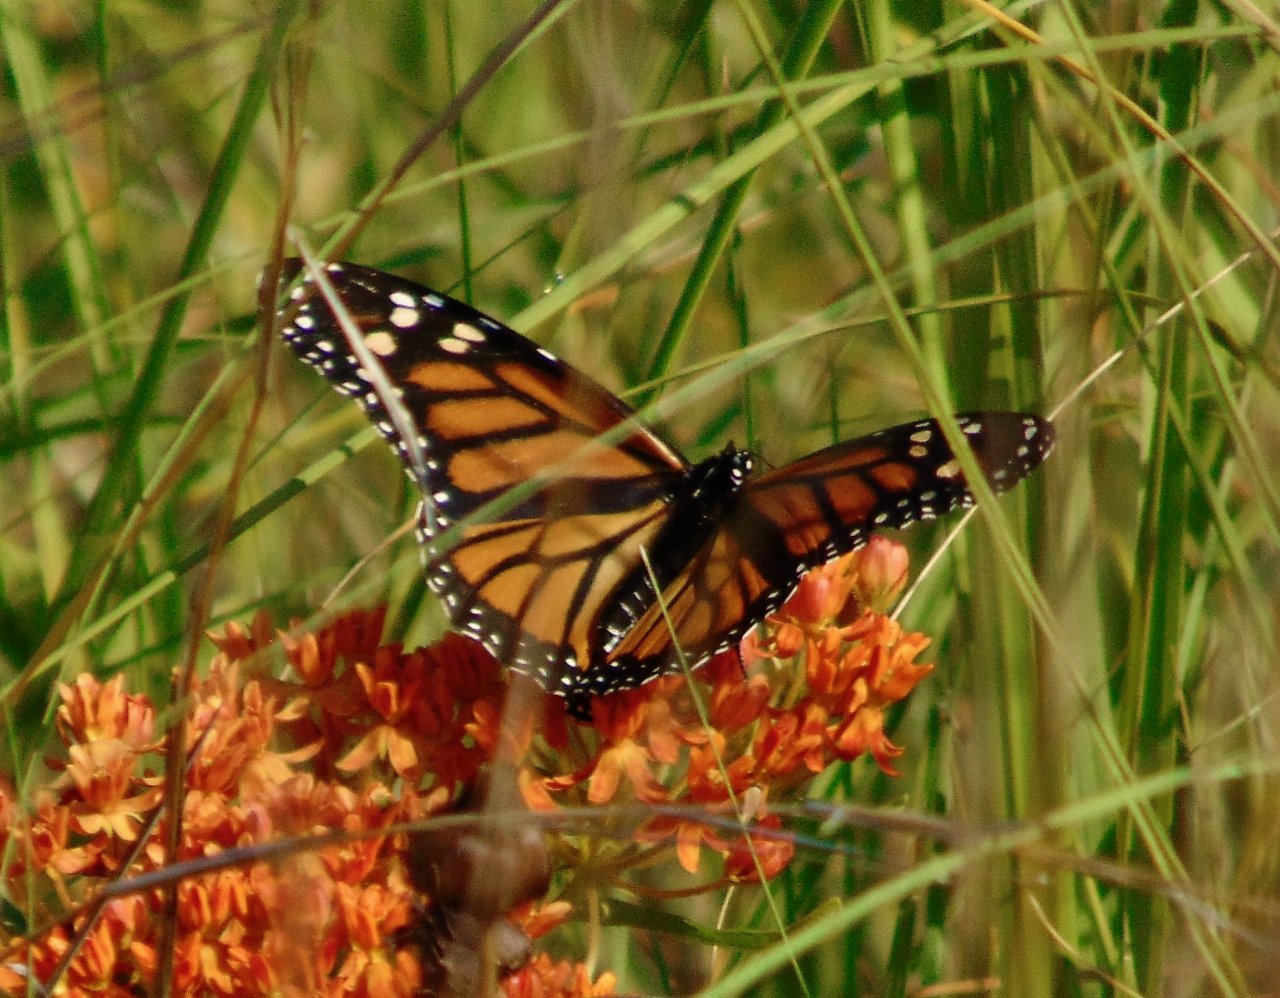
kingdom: Animalia
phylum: Arthropoda
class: Insecta
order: Lepidoptera
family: Nymphalidae
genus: Danaus
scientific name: Danaus plexippus
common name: Monarch
